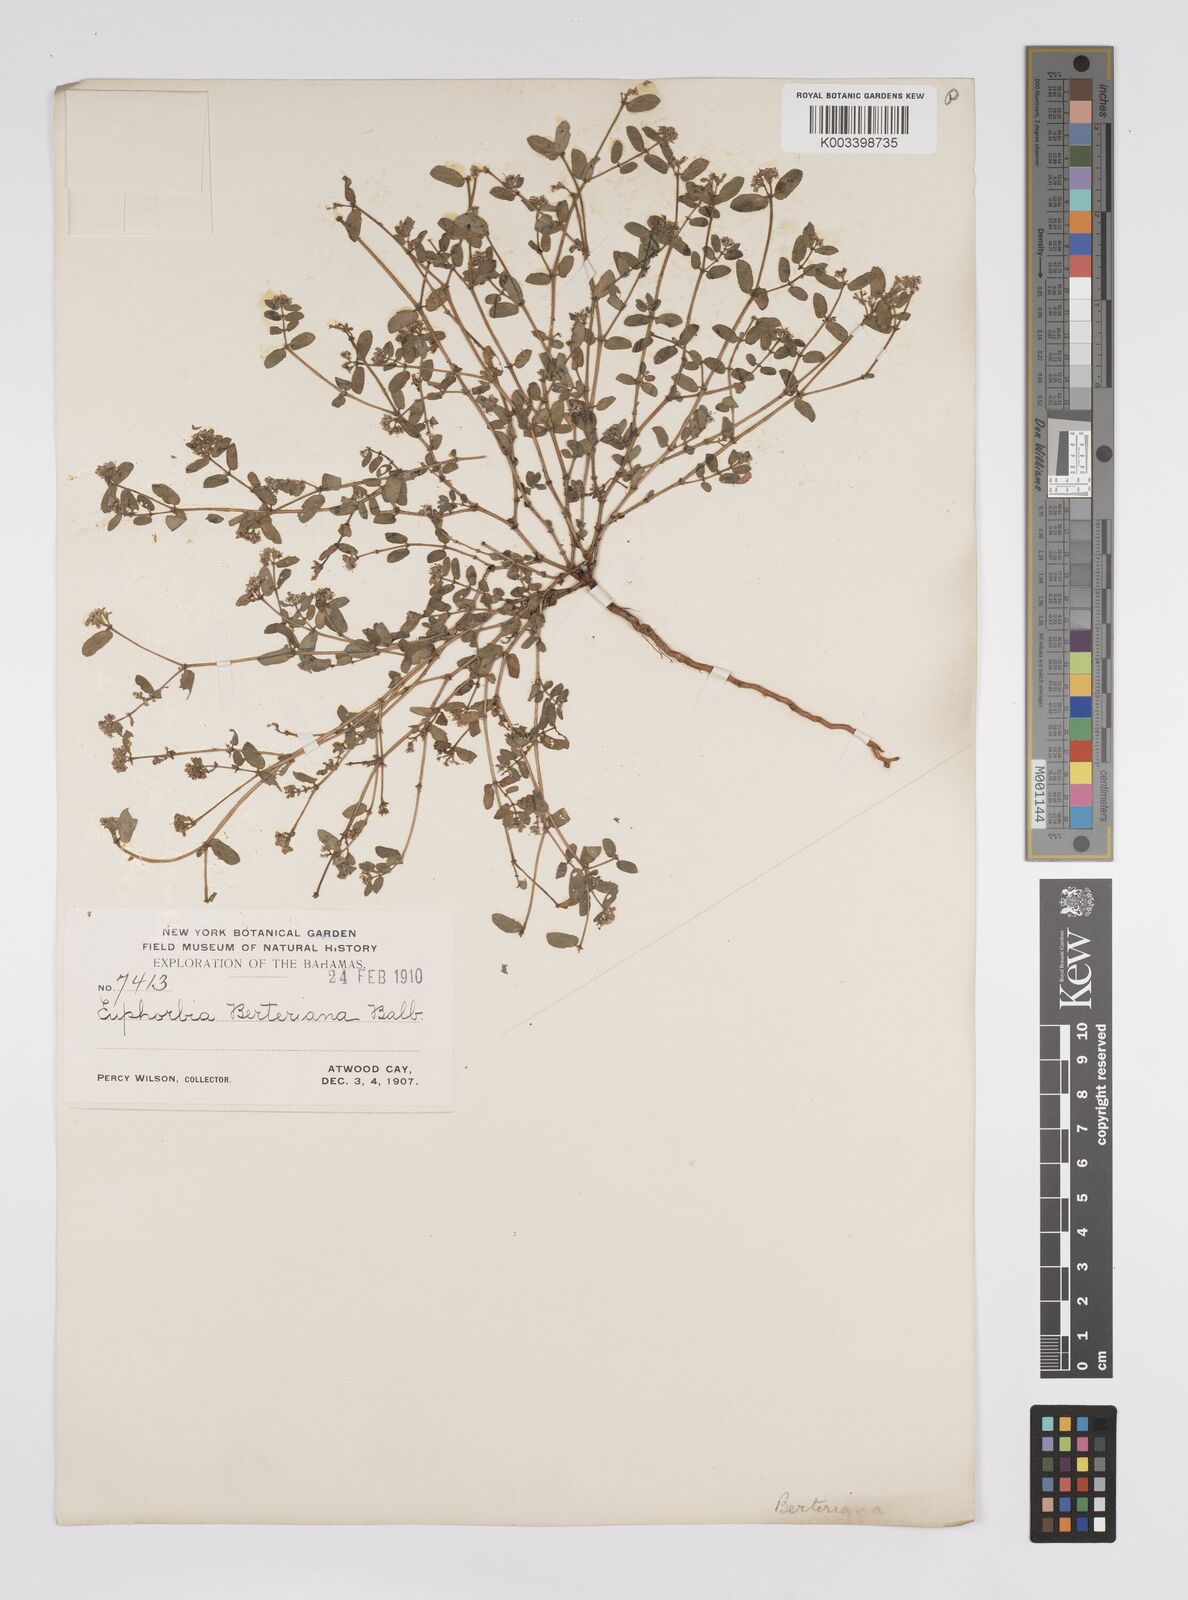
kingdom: Plantae
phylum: Tracheophyta
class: Magnoliopsida
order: Malpighiales
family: Euphorbiaceae
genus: Euphorbia
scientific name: Euphorbia berteroana
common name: Bertero's sandmat
